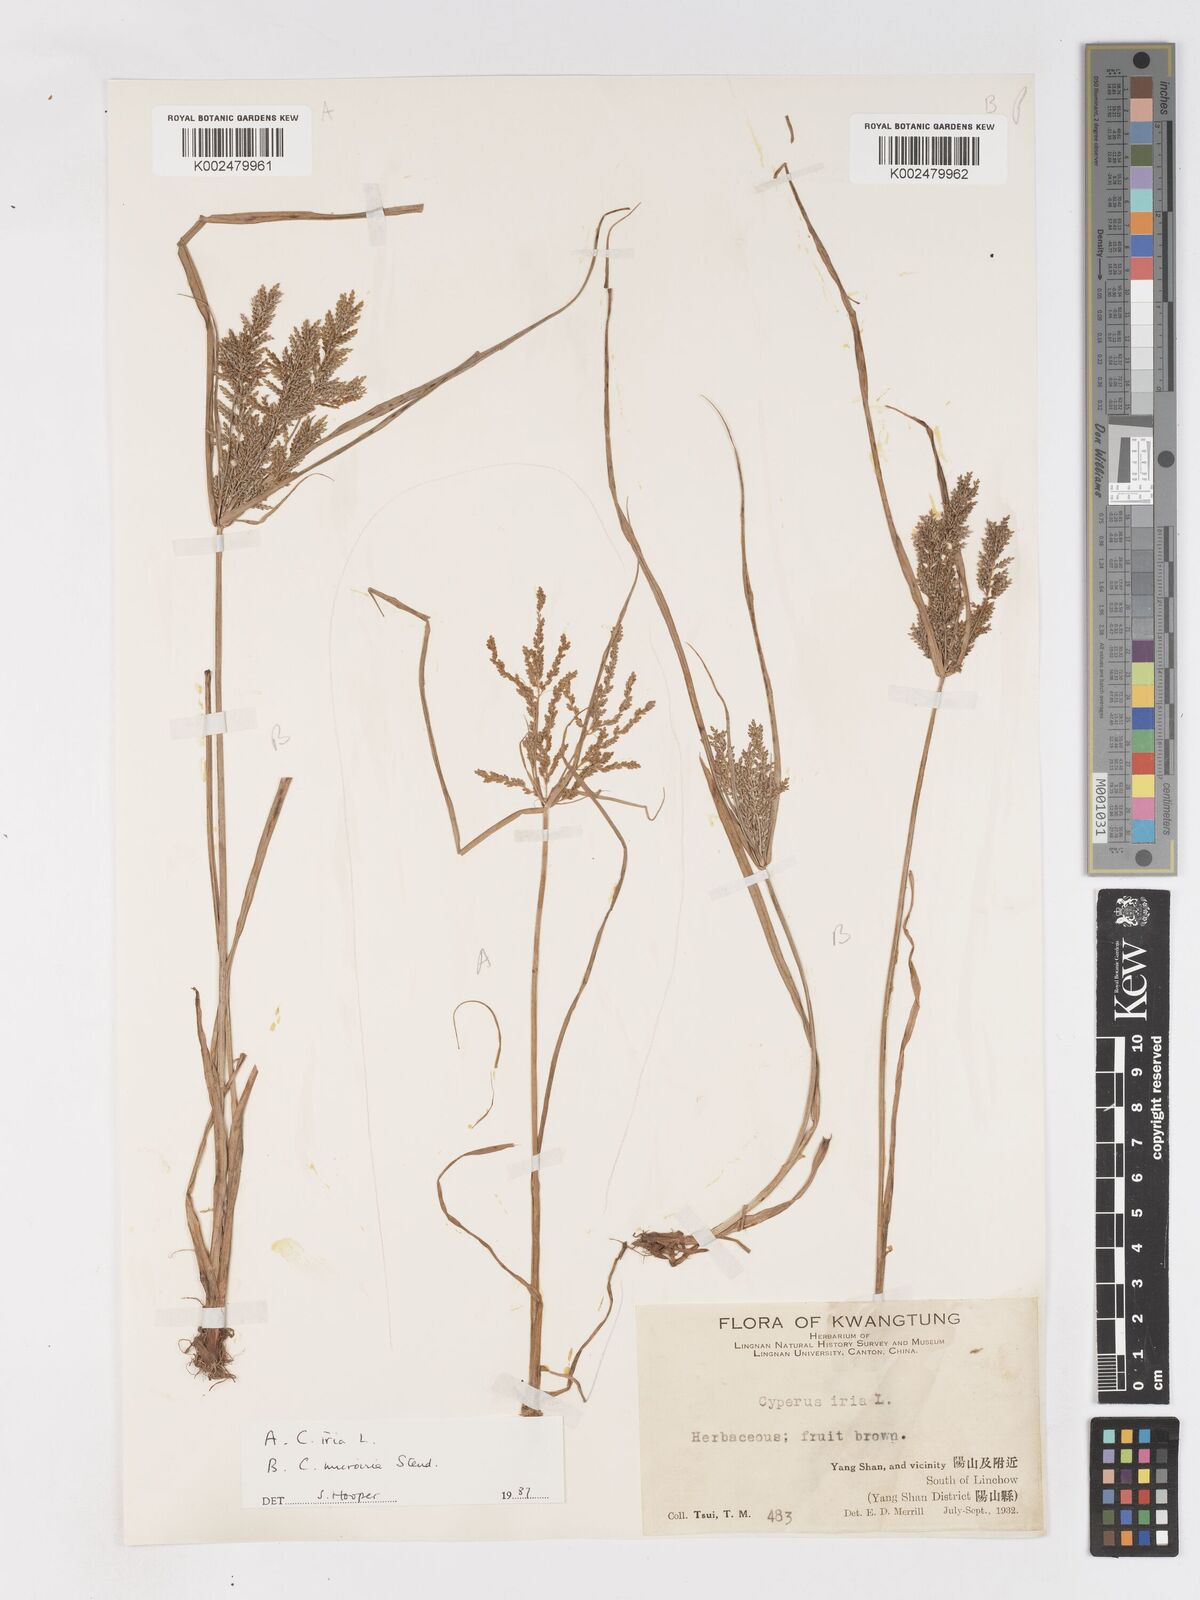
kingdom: Plantae
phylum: Tracheophyta
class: Liliopsida
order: Poales
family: Cyperaceae
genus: Cyperus
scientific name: Cyperus microiria
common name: Asian flatsedge
